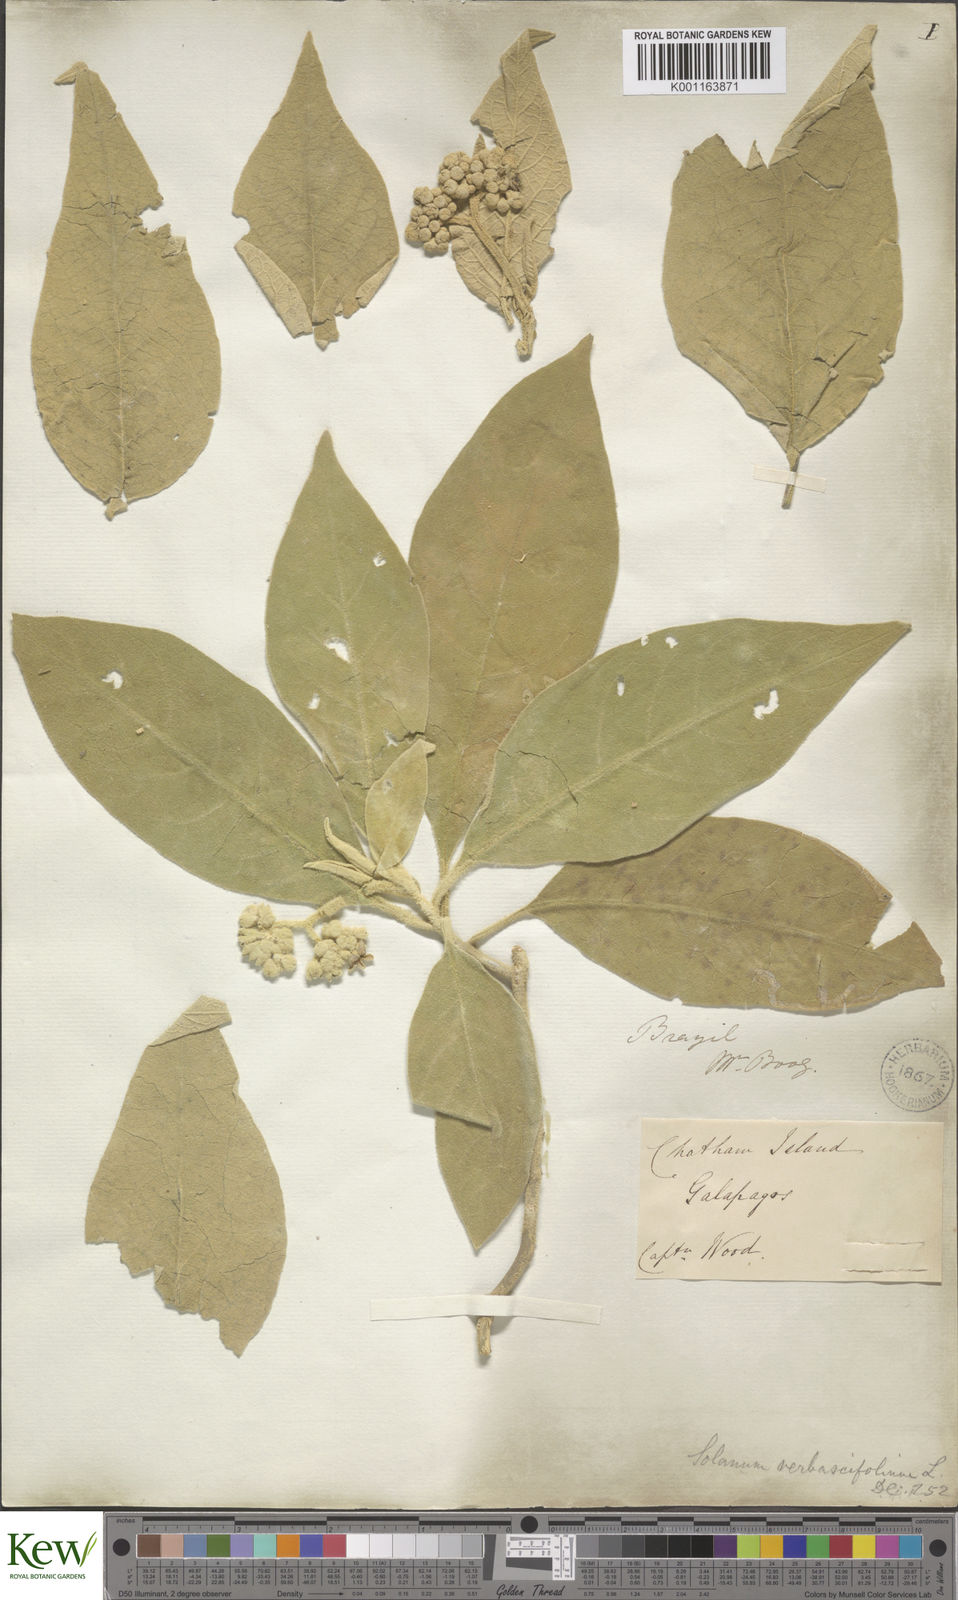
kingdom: Plantae
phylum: Tracheophyta
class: Magnoliopsida
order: Solanales
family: Solanaceae
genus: Solanum
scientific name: Solanum erianthum
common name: Tobacco-tree
